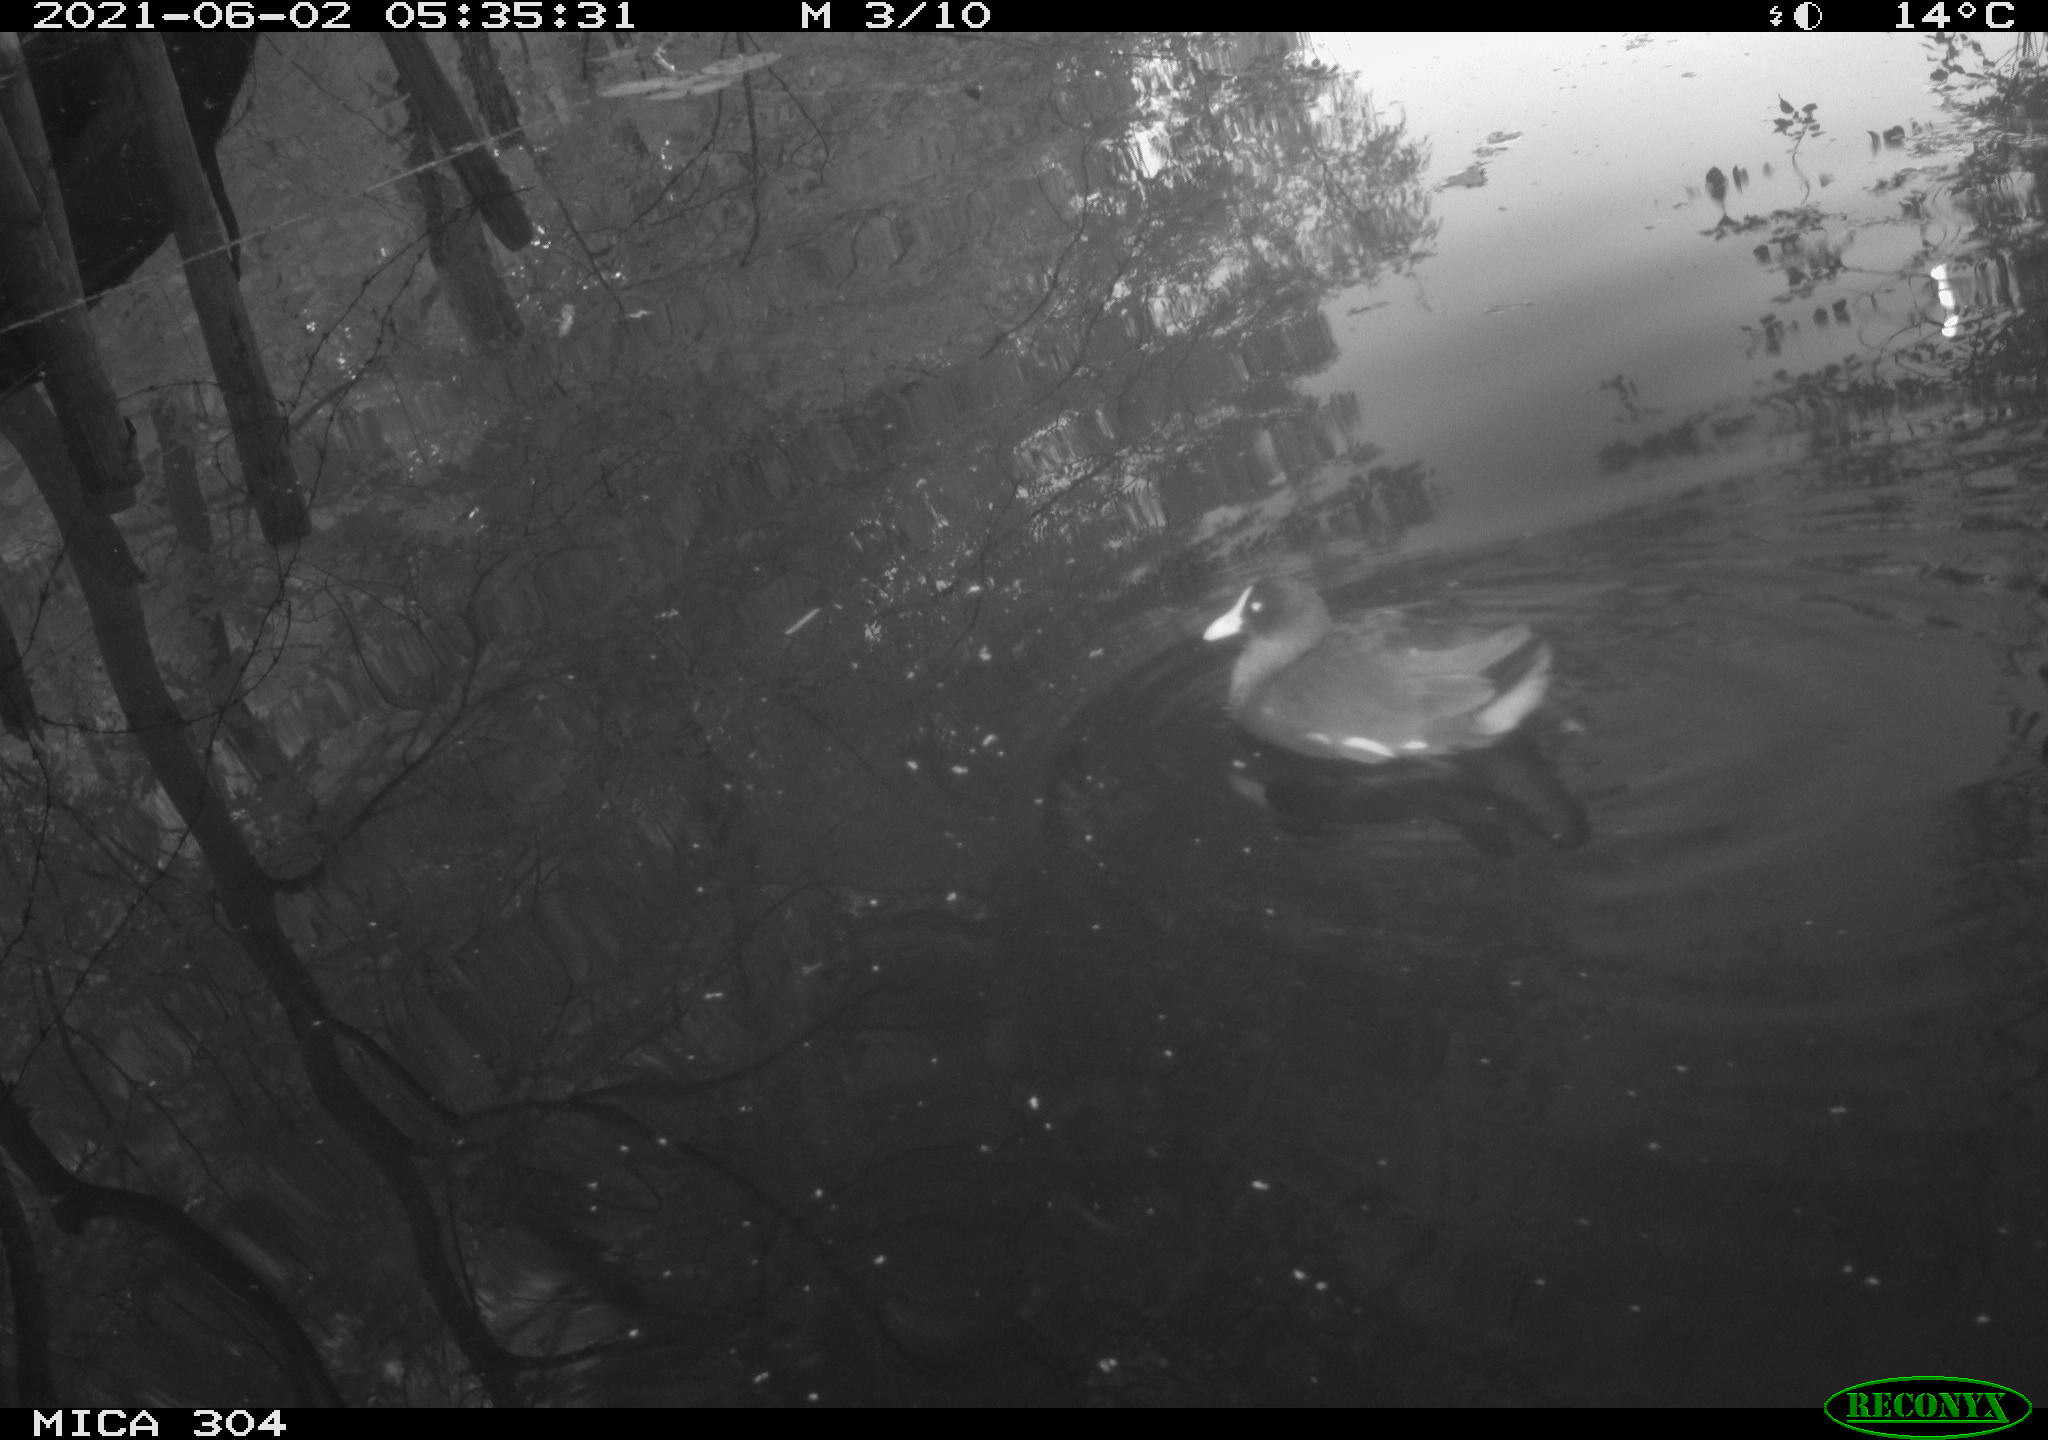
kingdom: Animalia
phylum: Chordata
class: Aves
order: Gruiformes
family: Rallidae
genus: Gallinula
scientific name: Gallinula chloropus
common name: Common moorhen
